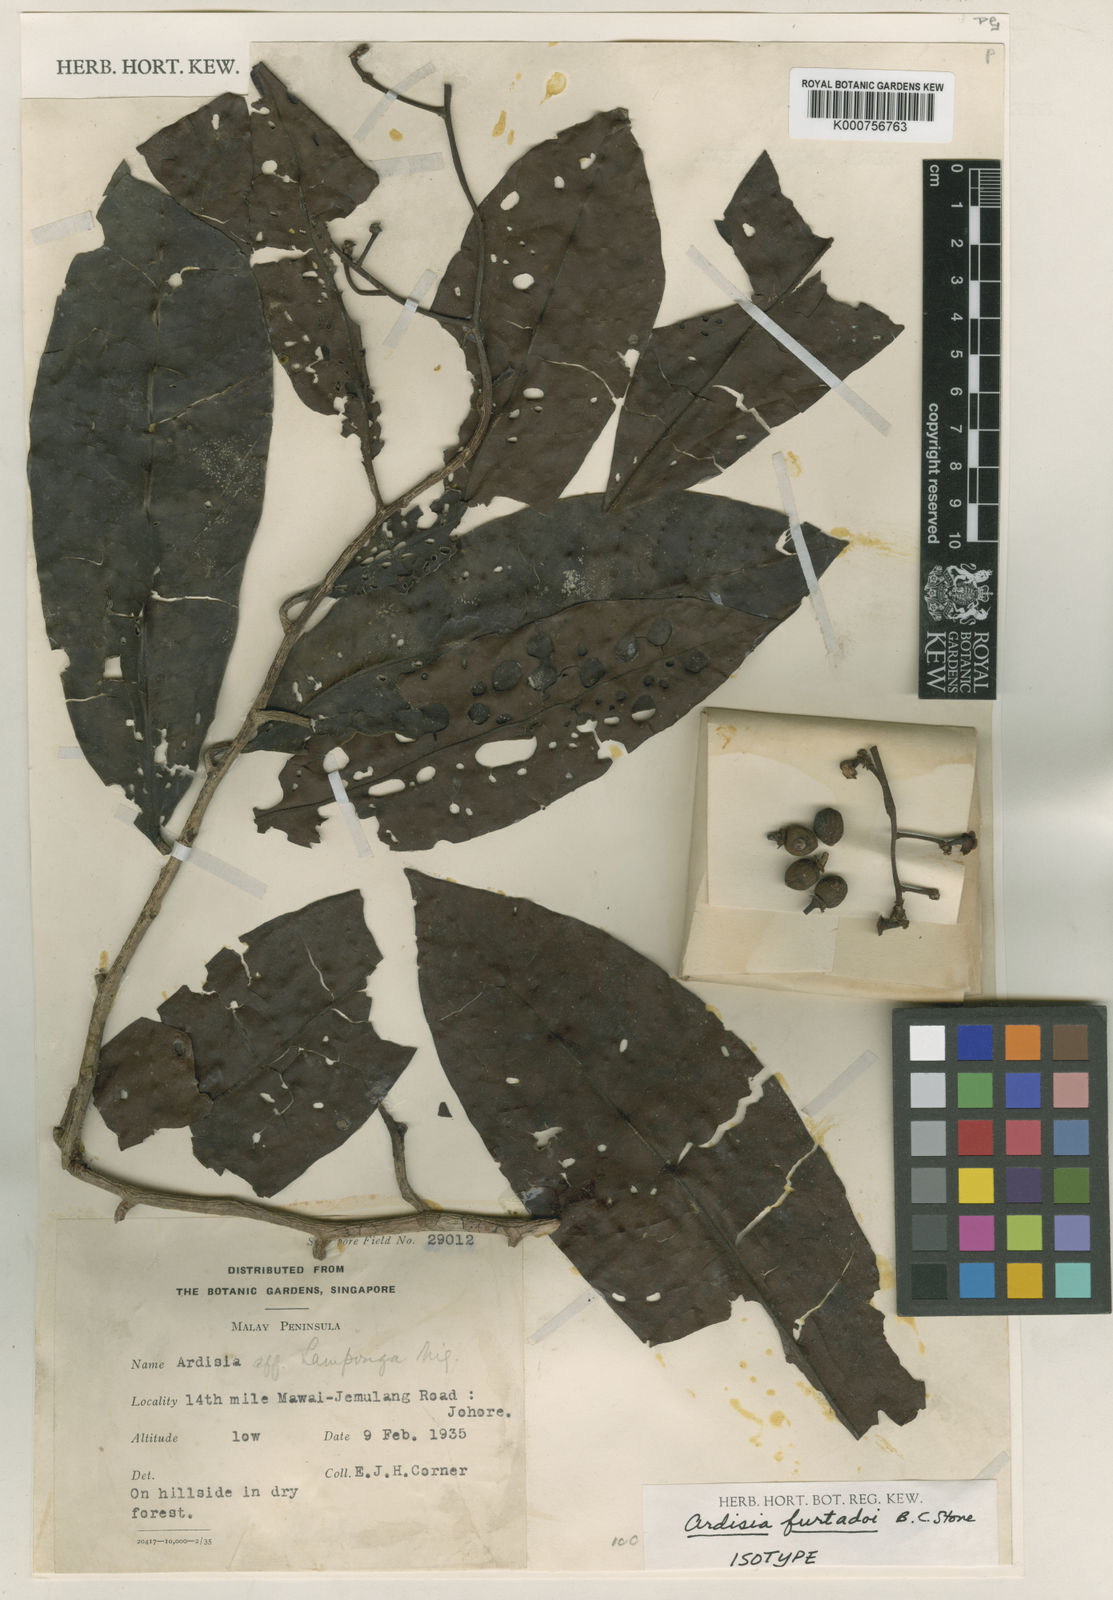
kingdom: Plantae
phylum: Tracheophyta
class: Magnoliopsida
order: Ericales
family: Primulaceae
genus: Ardisia
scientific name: Ardisia obscurinervia
